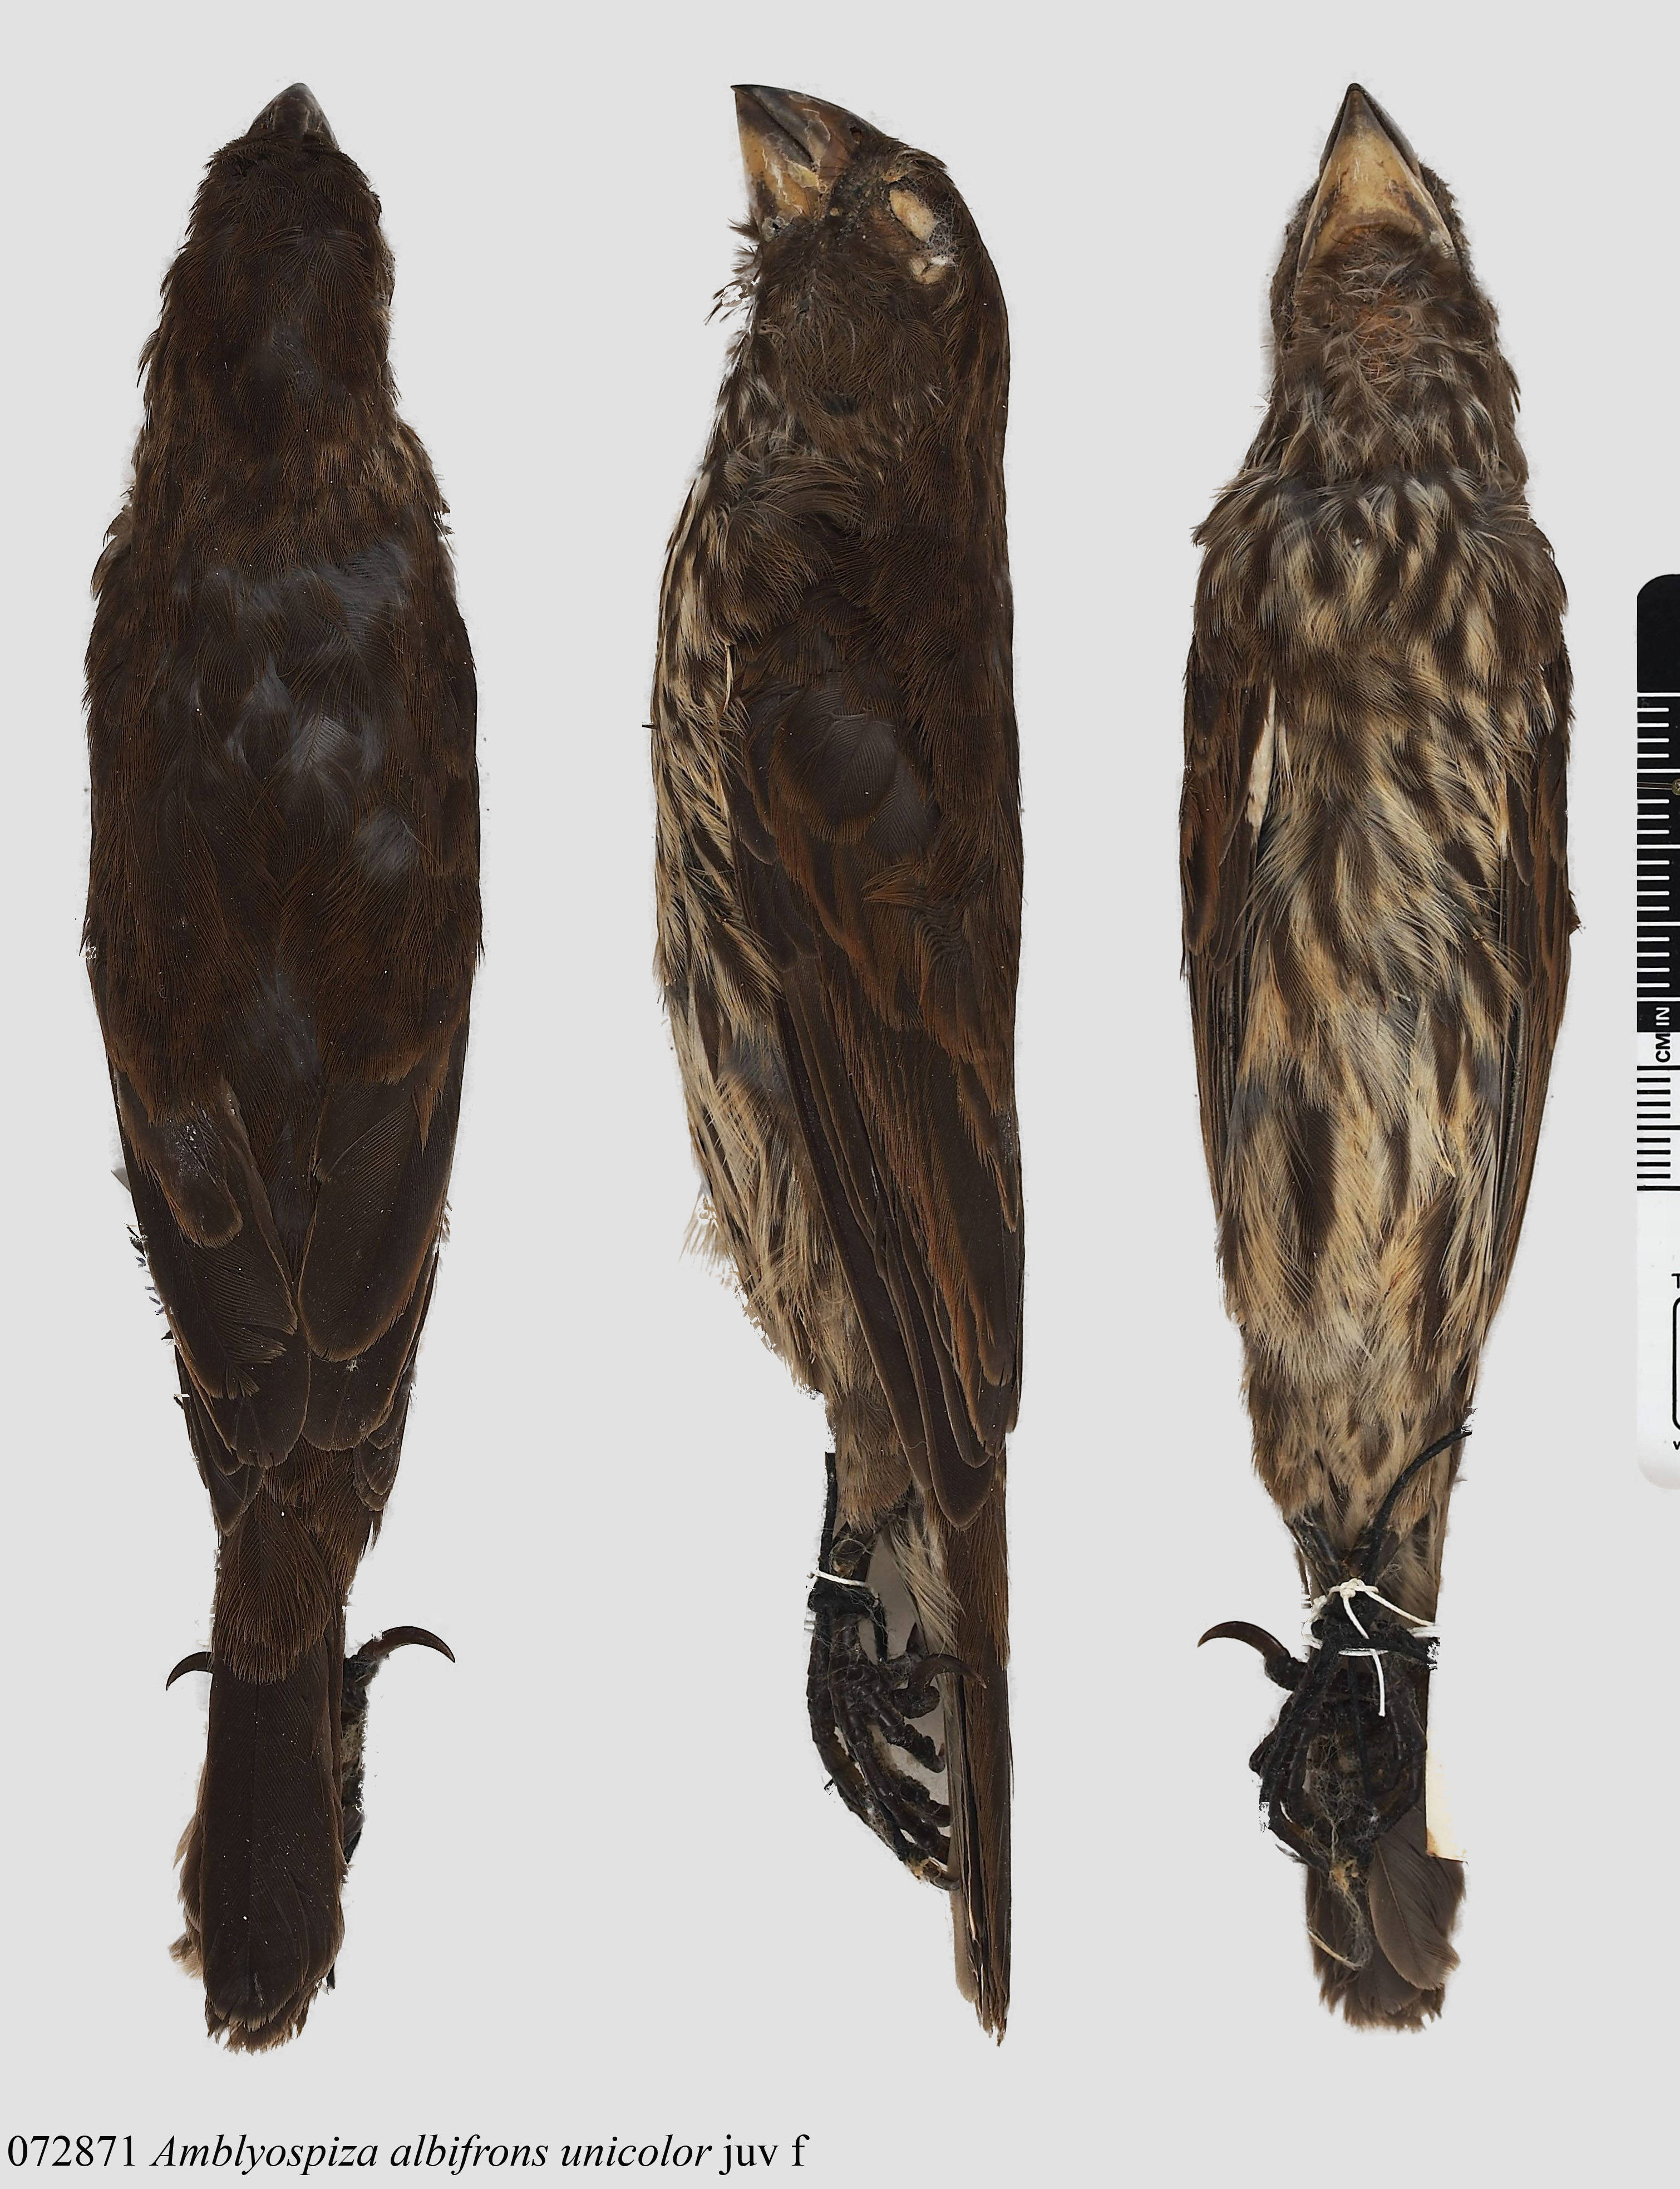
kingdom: Animalia
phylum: Chordata
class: Aves
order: Passeriformes
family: Ploceidae
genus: Amblyospiza
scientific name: Amblyospiza albifrons
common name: Thick-billed weaver
